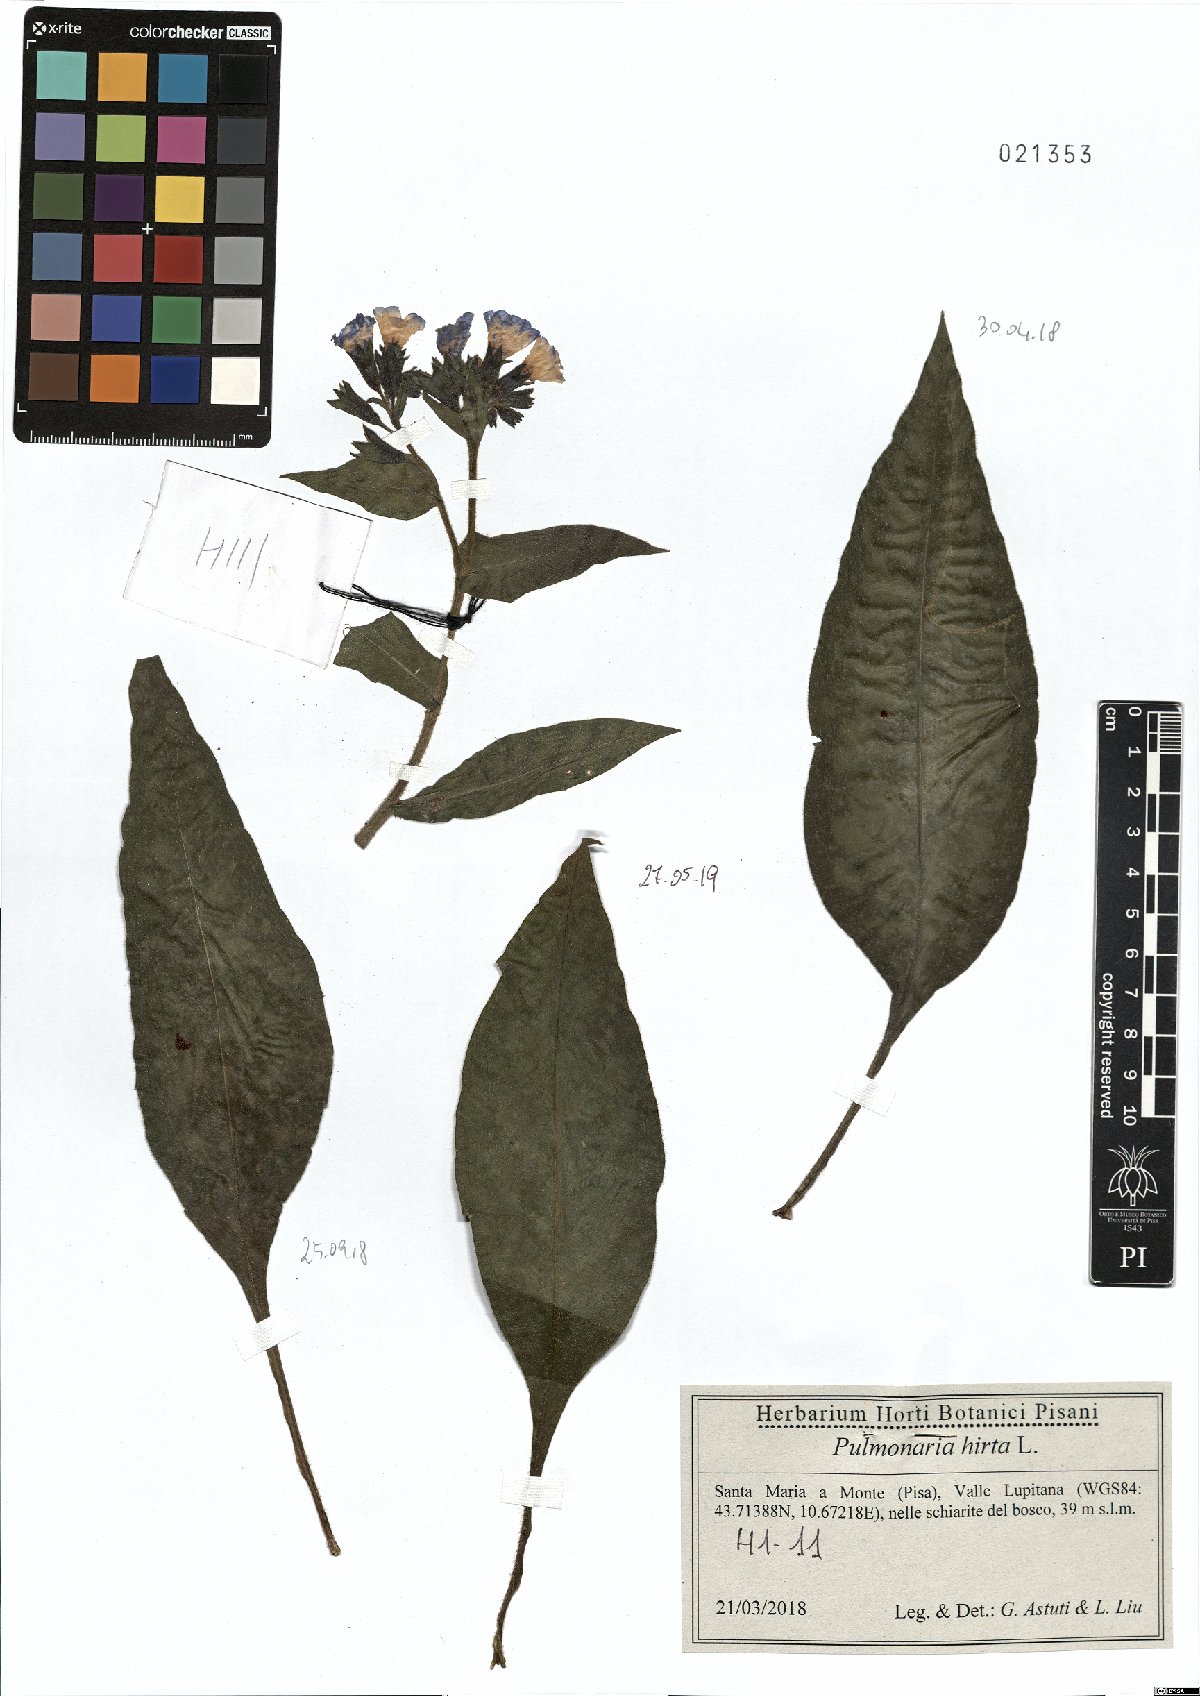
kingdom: Plantae
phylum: Tracheophyta
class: Magnoliopsida
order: Boraginales
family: Boraginaceae
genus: Pulmonaria
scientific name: Pulmonaria hirta
